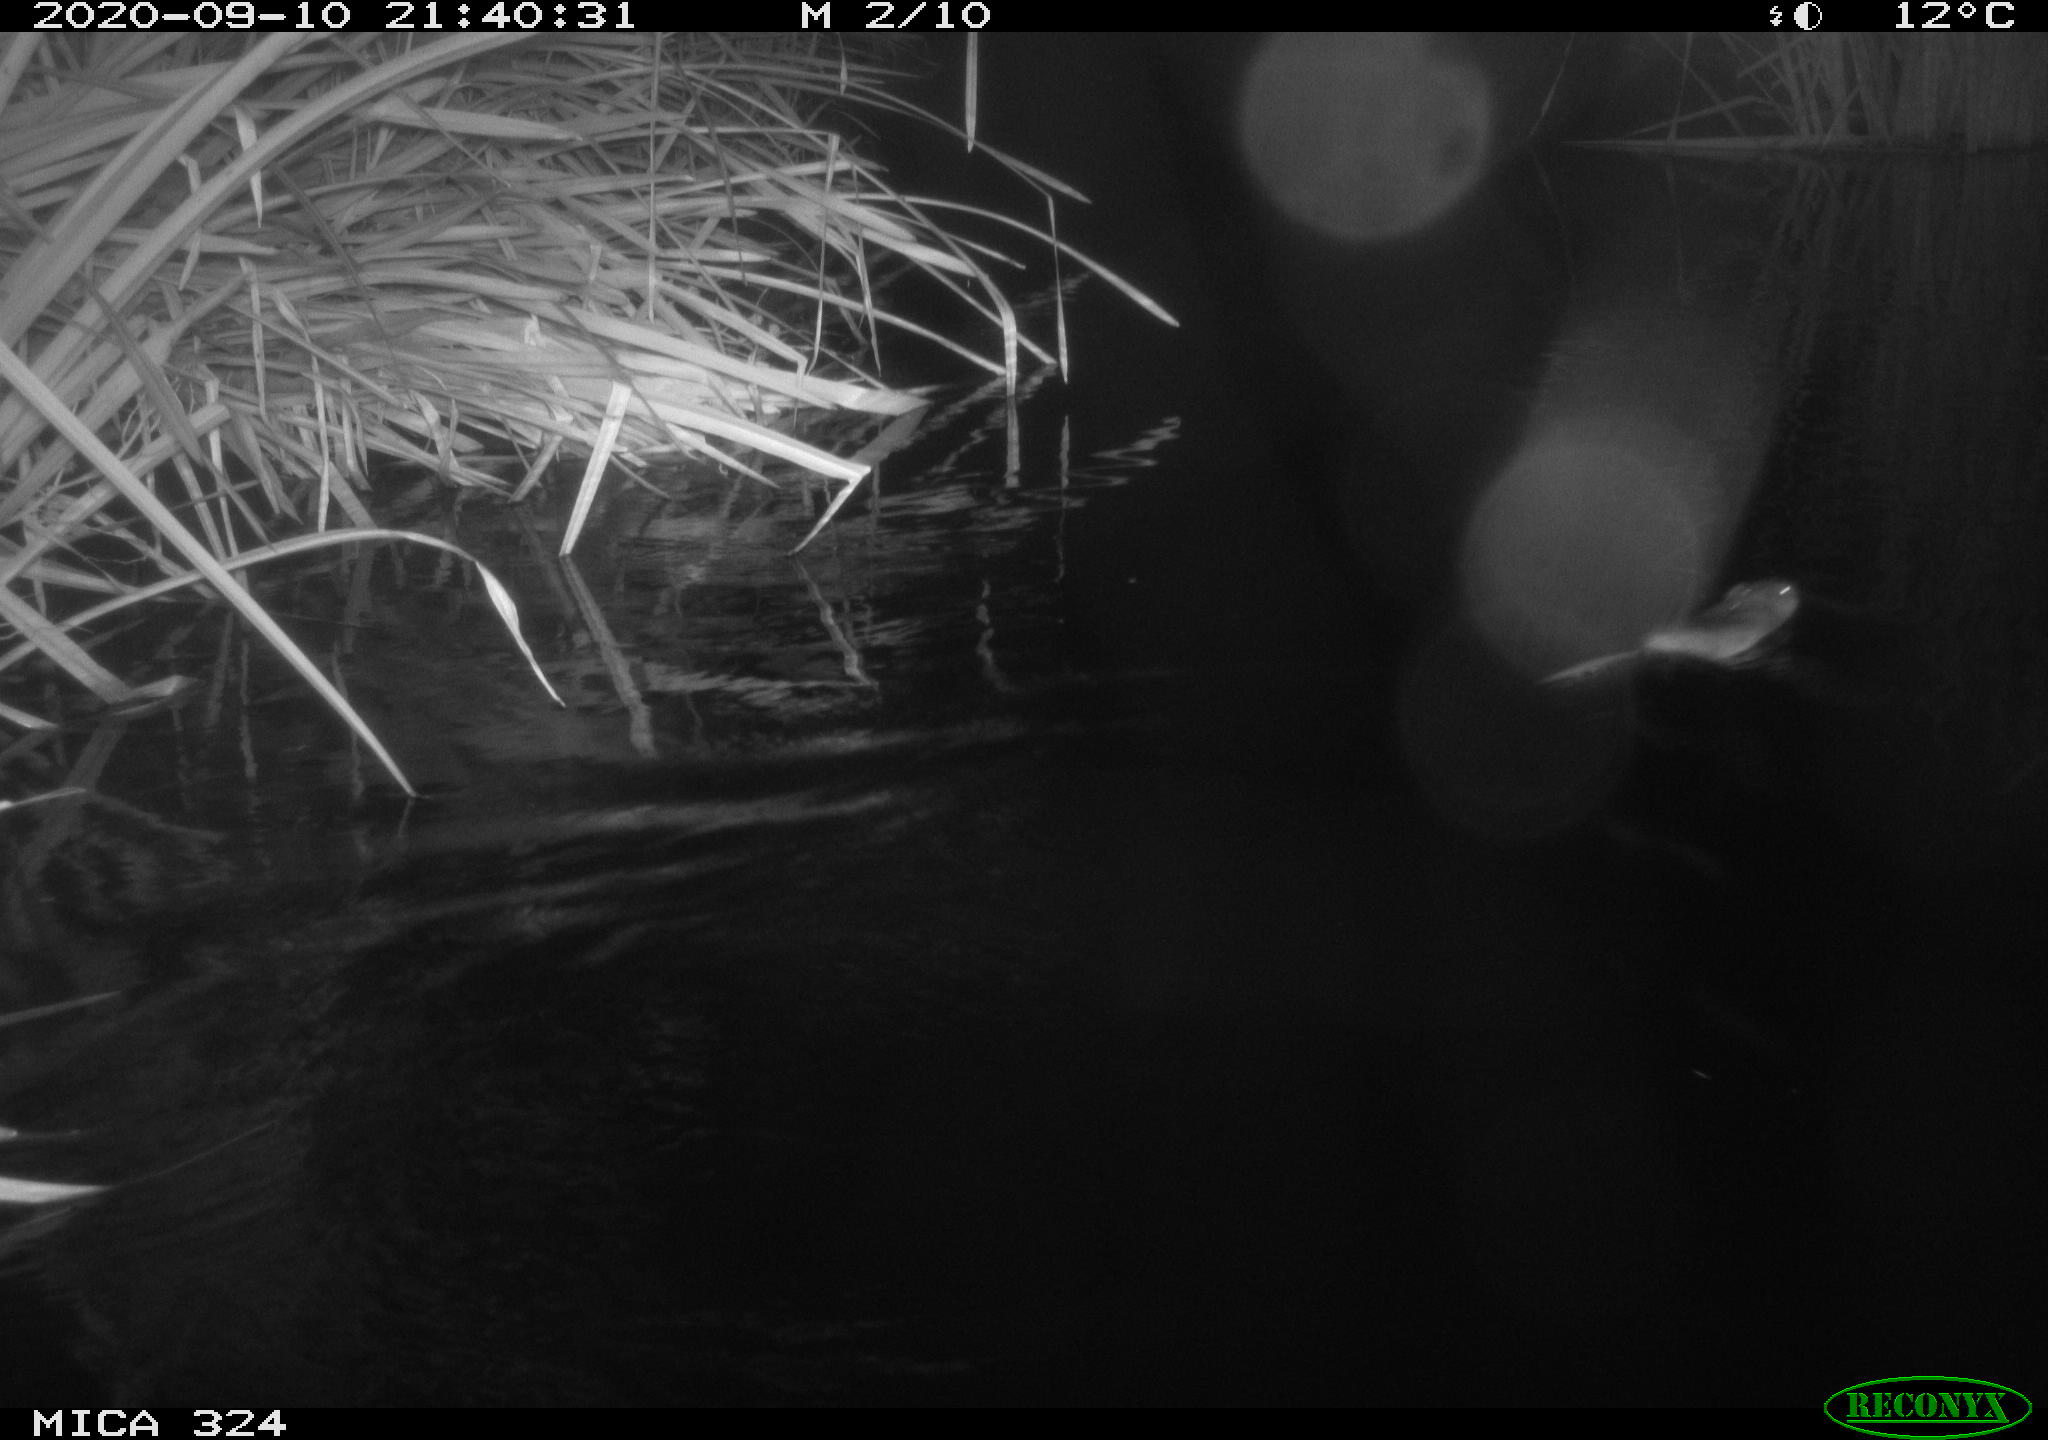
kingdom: Animalia
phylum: Chordata
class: Mammalia
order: Rodentia
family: Cricetidae
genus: Ondatra
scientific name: Ondatra zibethicus
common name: Muskrat
